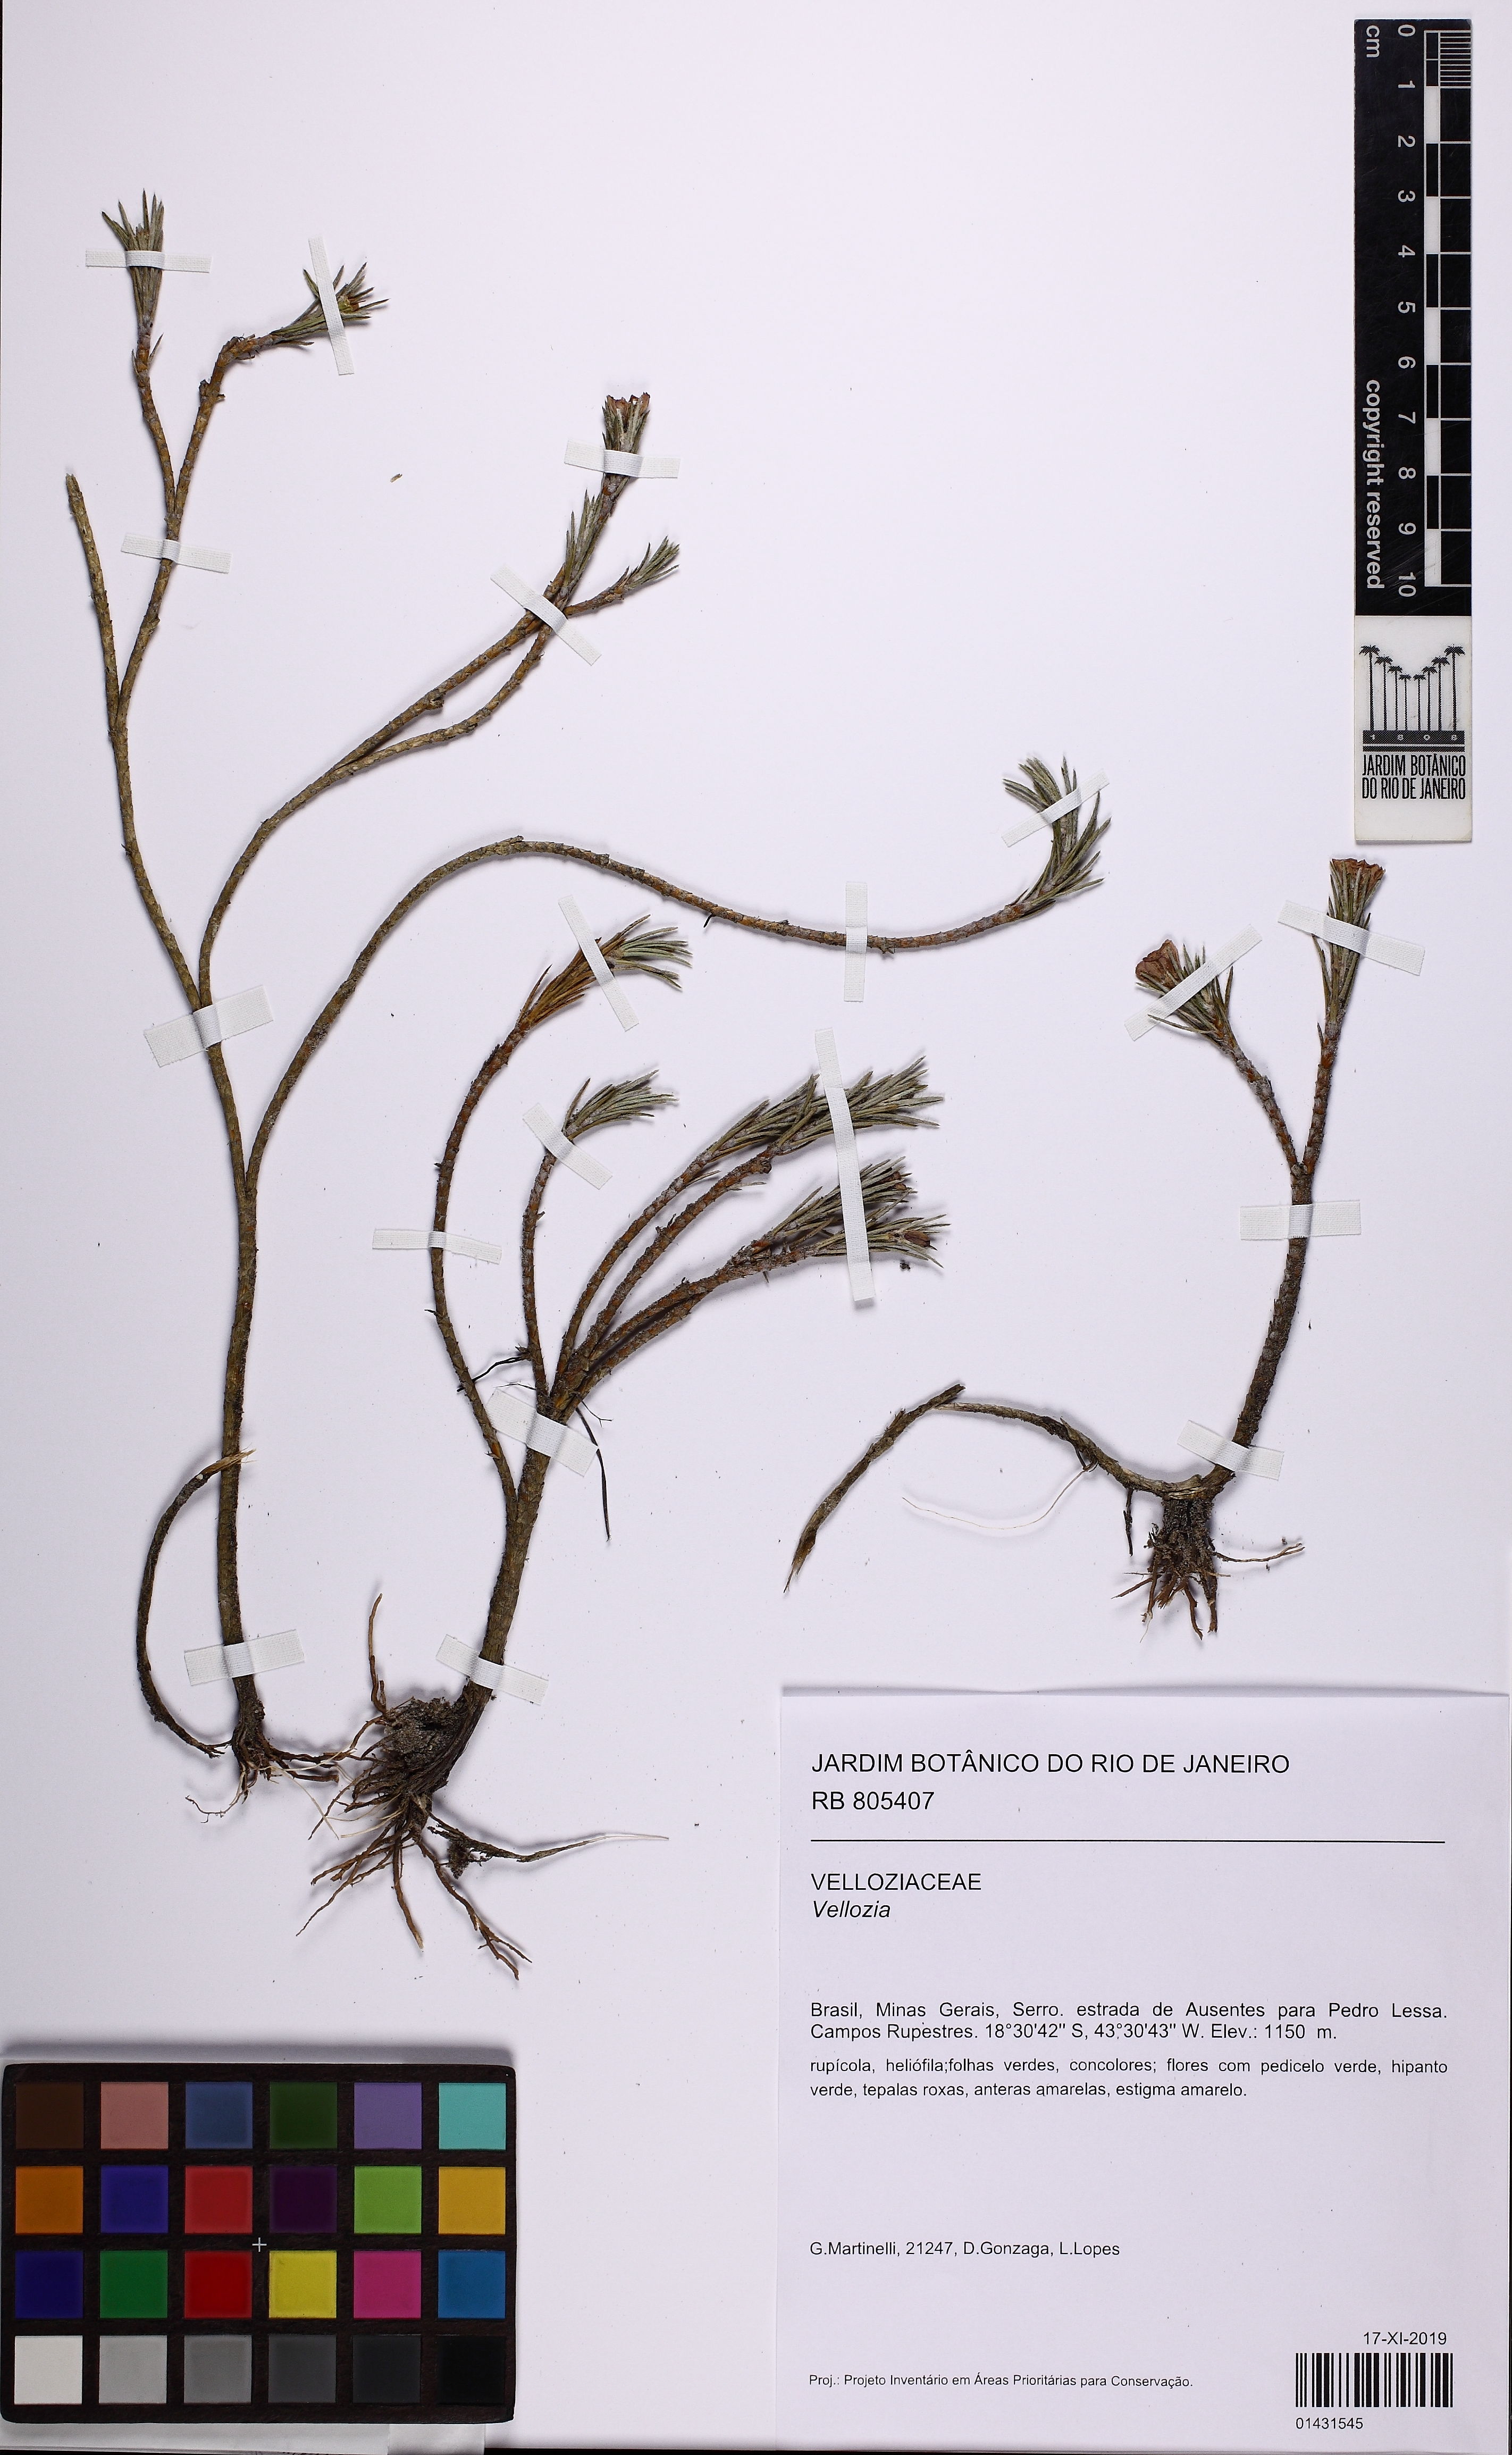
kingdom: Plantae
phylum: Tracheophyta
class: Liliopsida
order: Pandanales
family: Velloziaceae
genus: Vellozia
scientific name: Vellozia abietina
